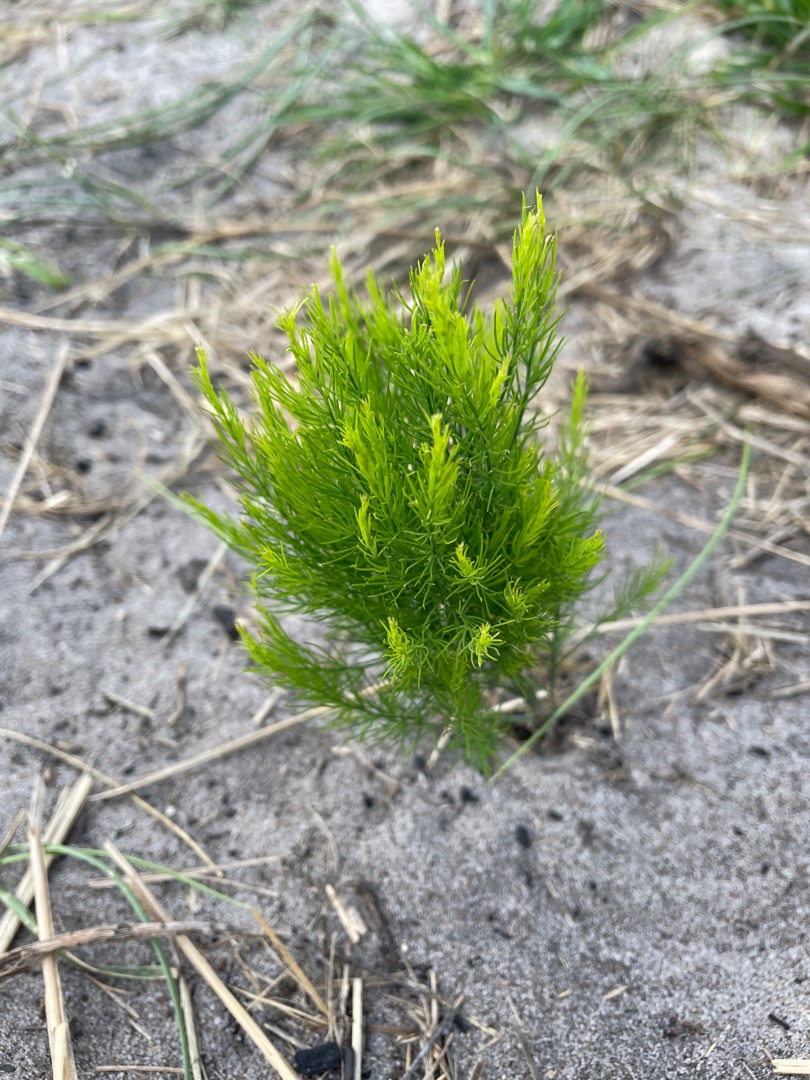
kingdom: Plantae
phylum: Tracheophyta
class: Liliopsida
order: Asparagales
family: Asparagaceae
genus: Asparagus
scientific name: Asparagus officinalis
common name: Asparges
